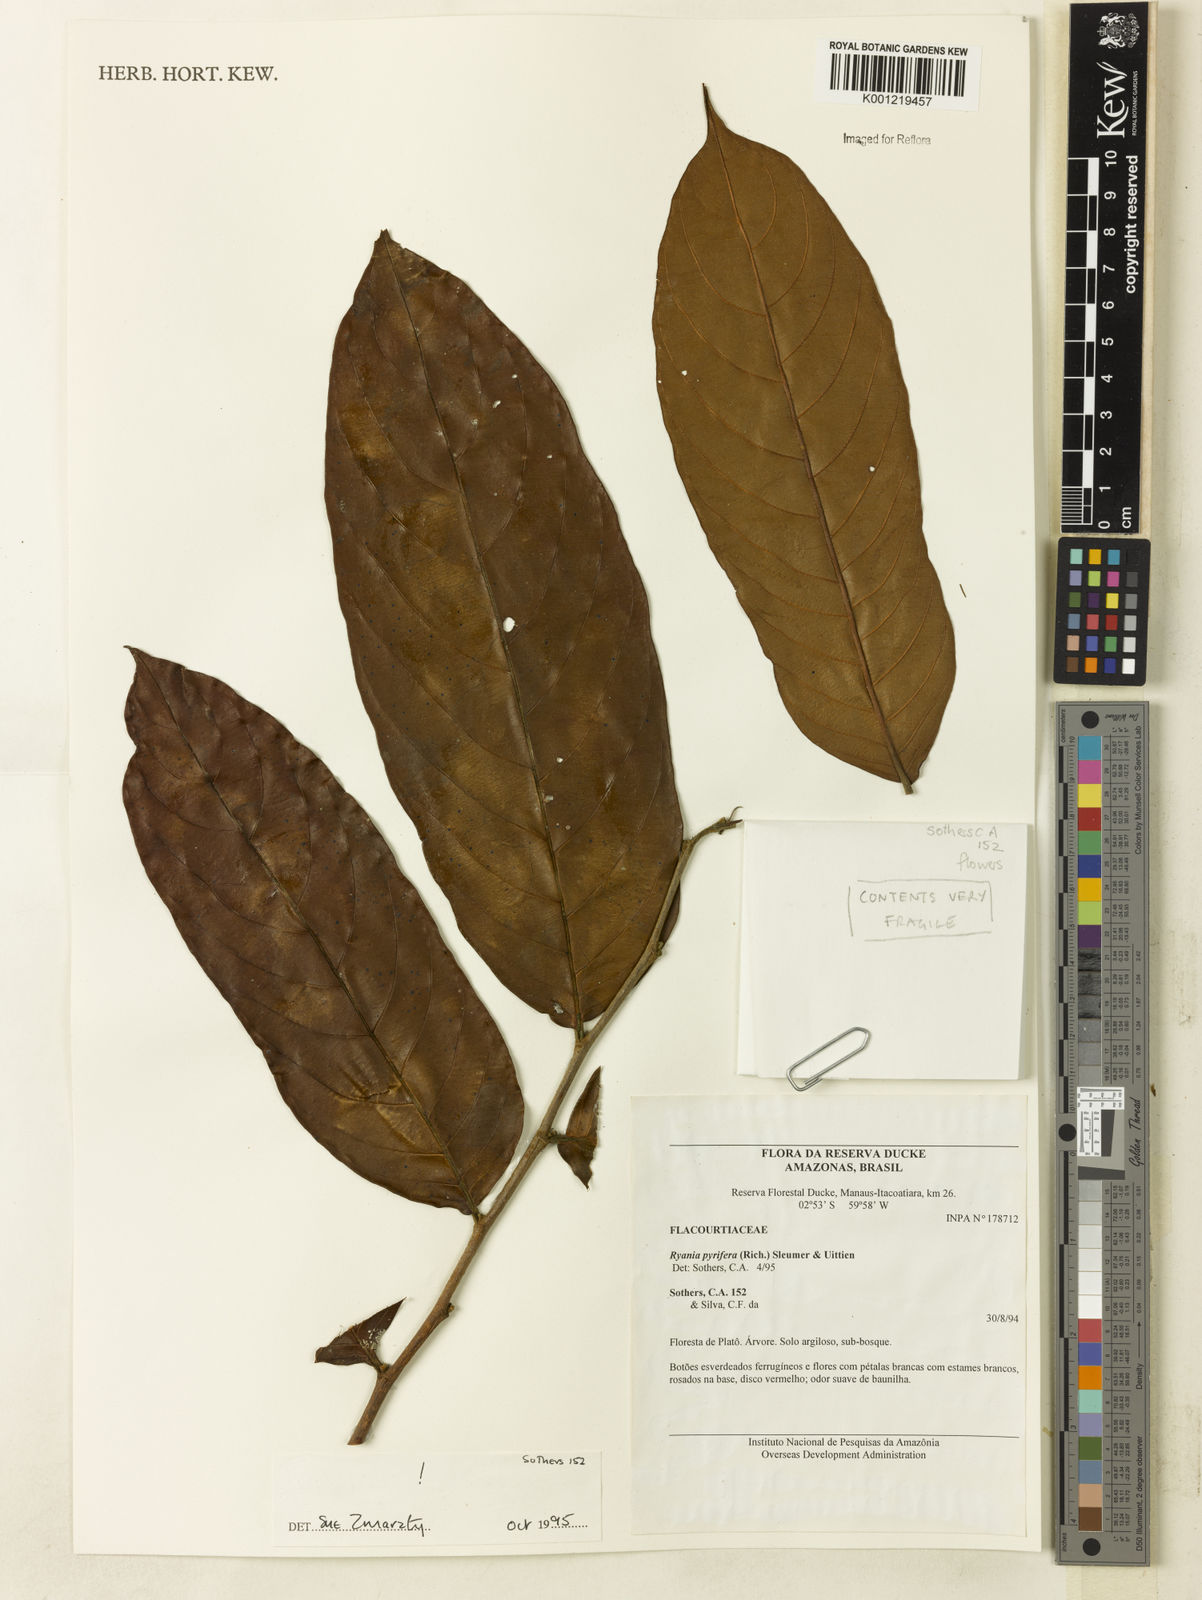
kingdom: Plantae
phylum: Tracheophyta
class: Magnoliopsida
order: Malpighiales
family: Salicaceae
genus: Ryania
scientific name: Ryania pyrifera
